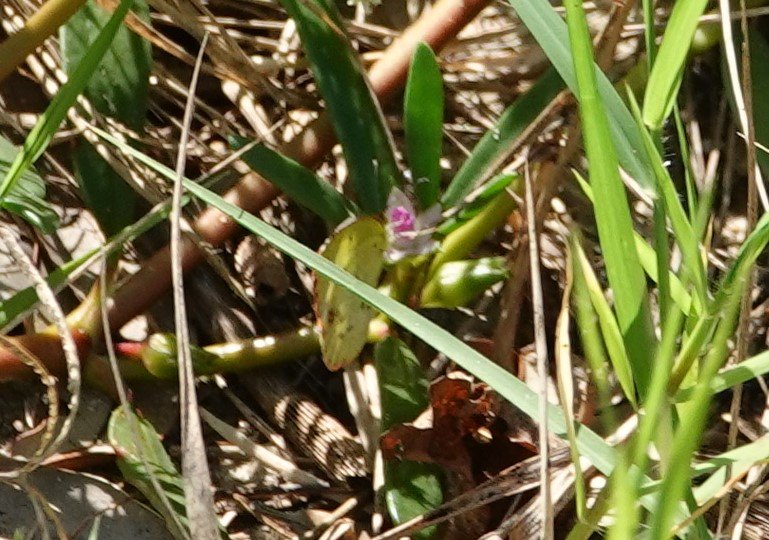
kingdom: Animalia
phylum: Arthropoda
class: Insecta
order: Lepidoptera
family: Pieridae
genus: Pyrisitia
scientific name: Pyrisitia lisa
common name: Little Yellow
